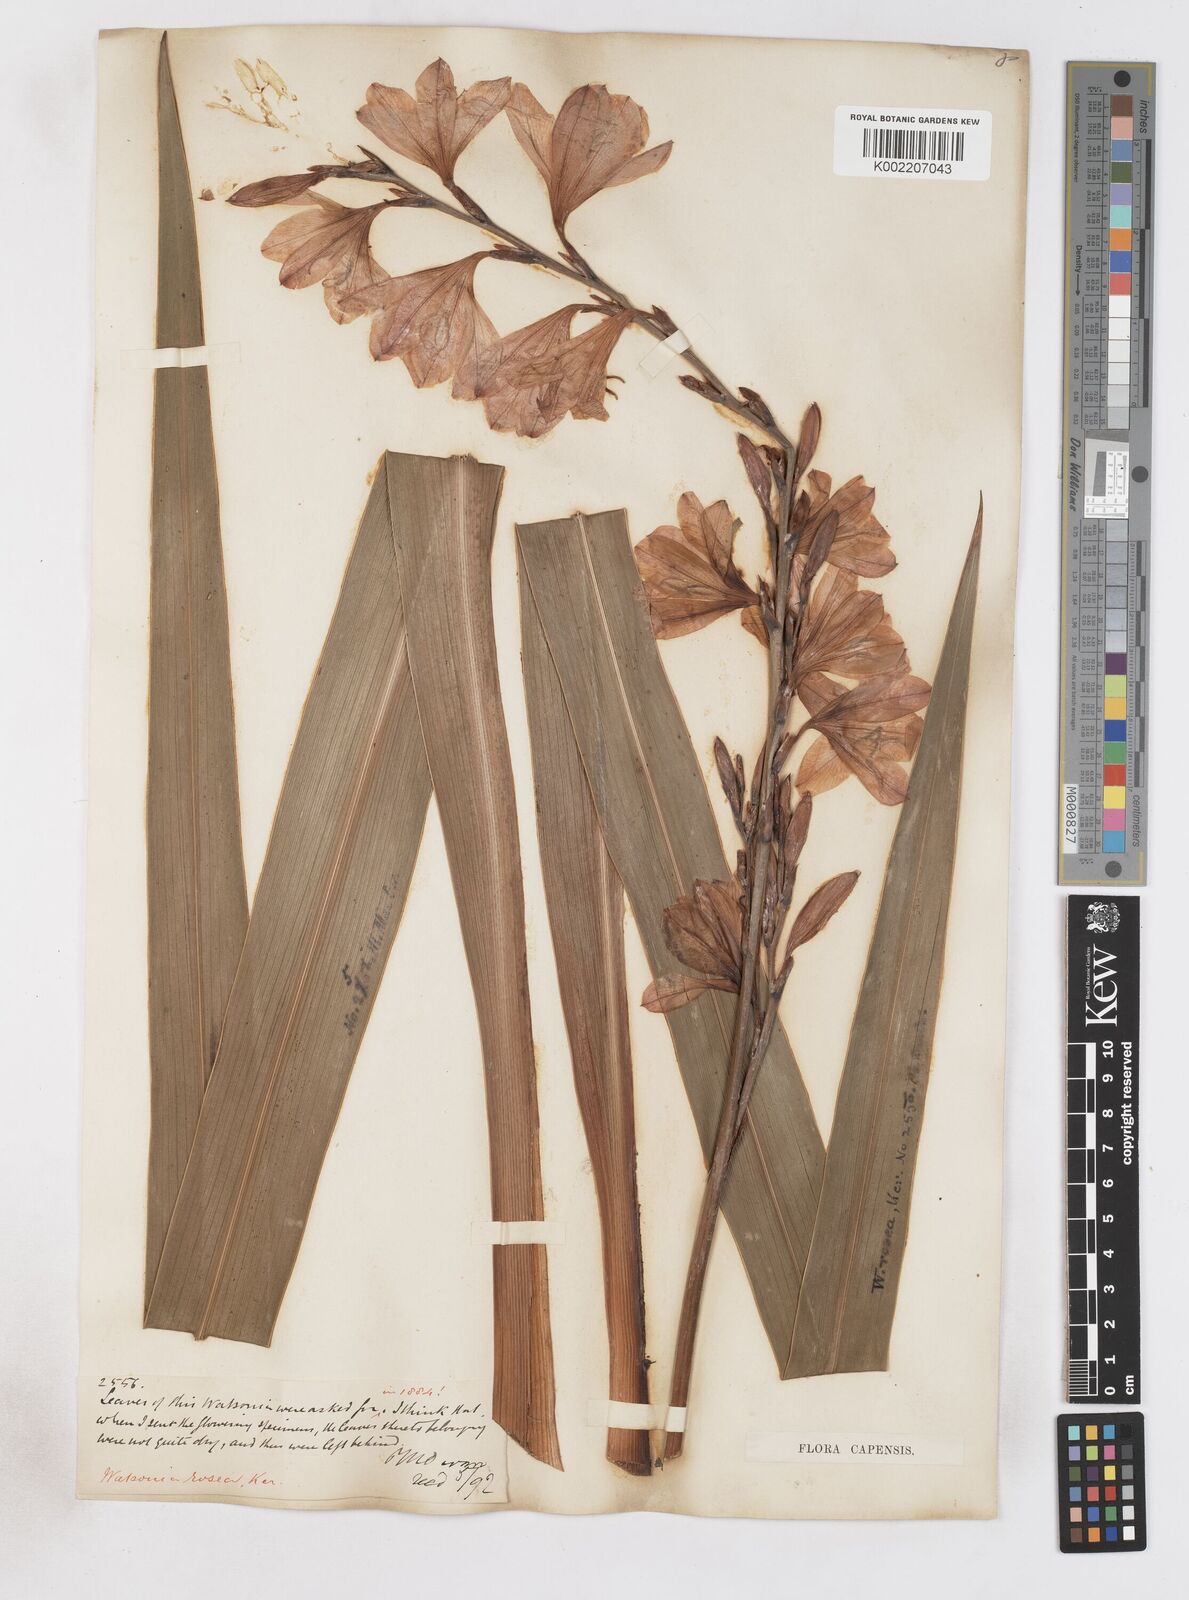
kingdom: Plantae
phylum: Tracheophyta
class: Liliopsida
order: Asparagales
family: Iridaceae
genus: Watsonia
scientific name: Watsonia borbonica
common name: Bugle-lily
